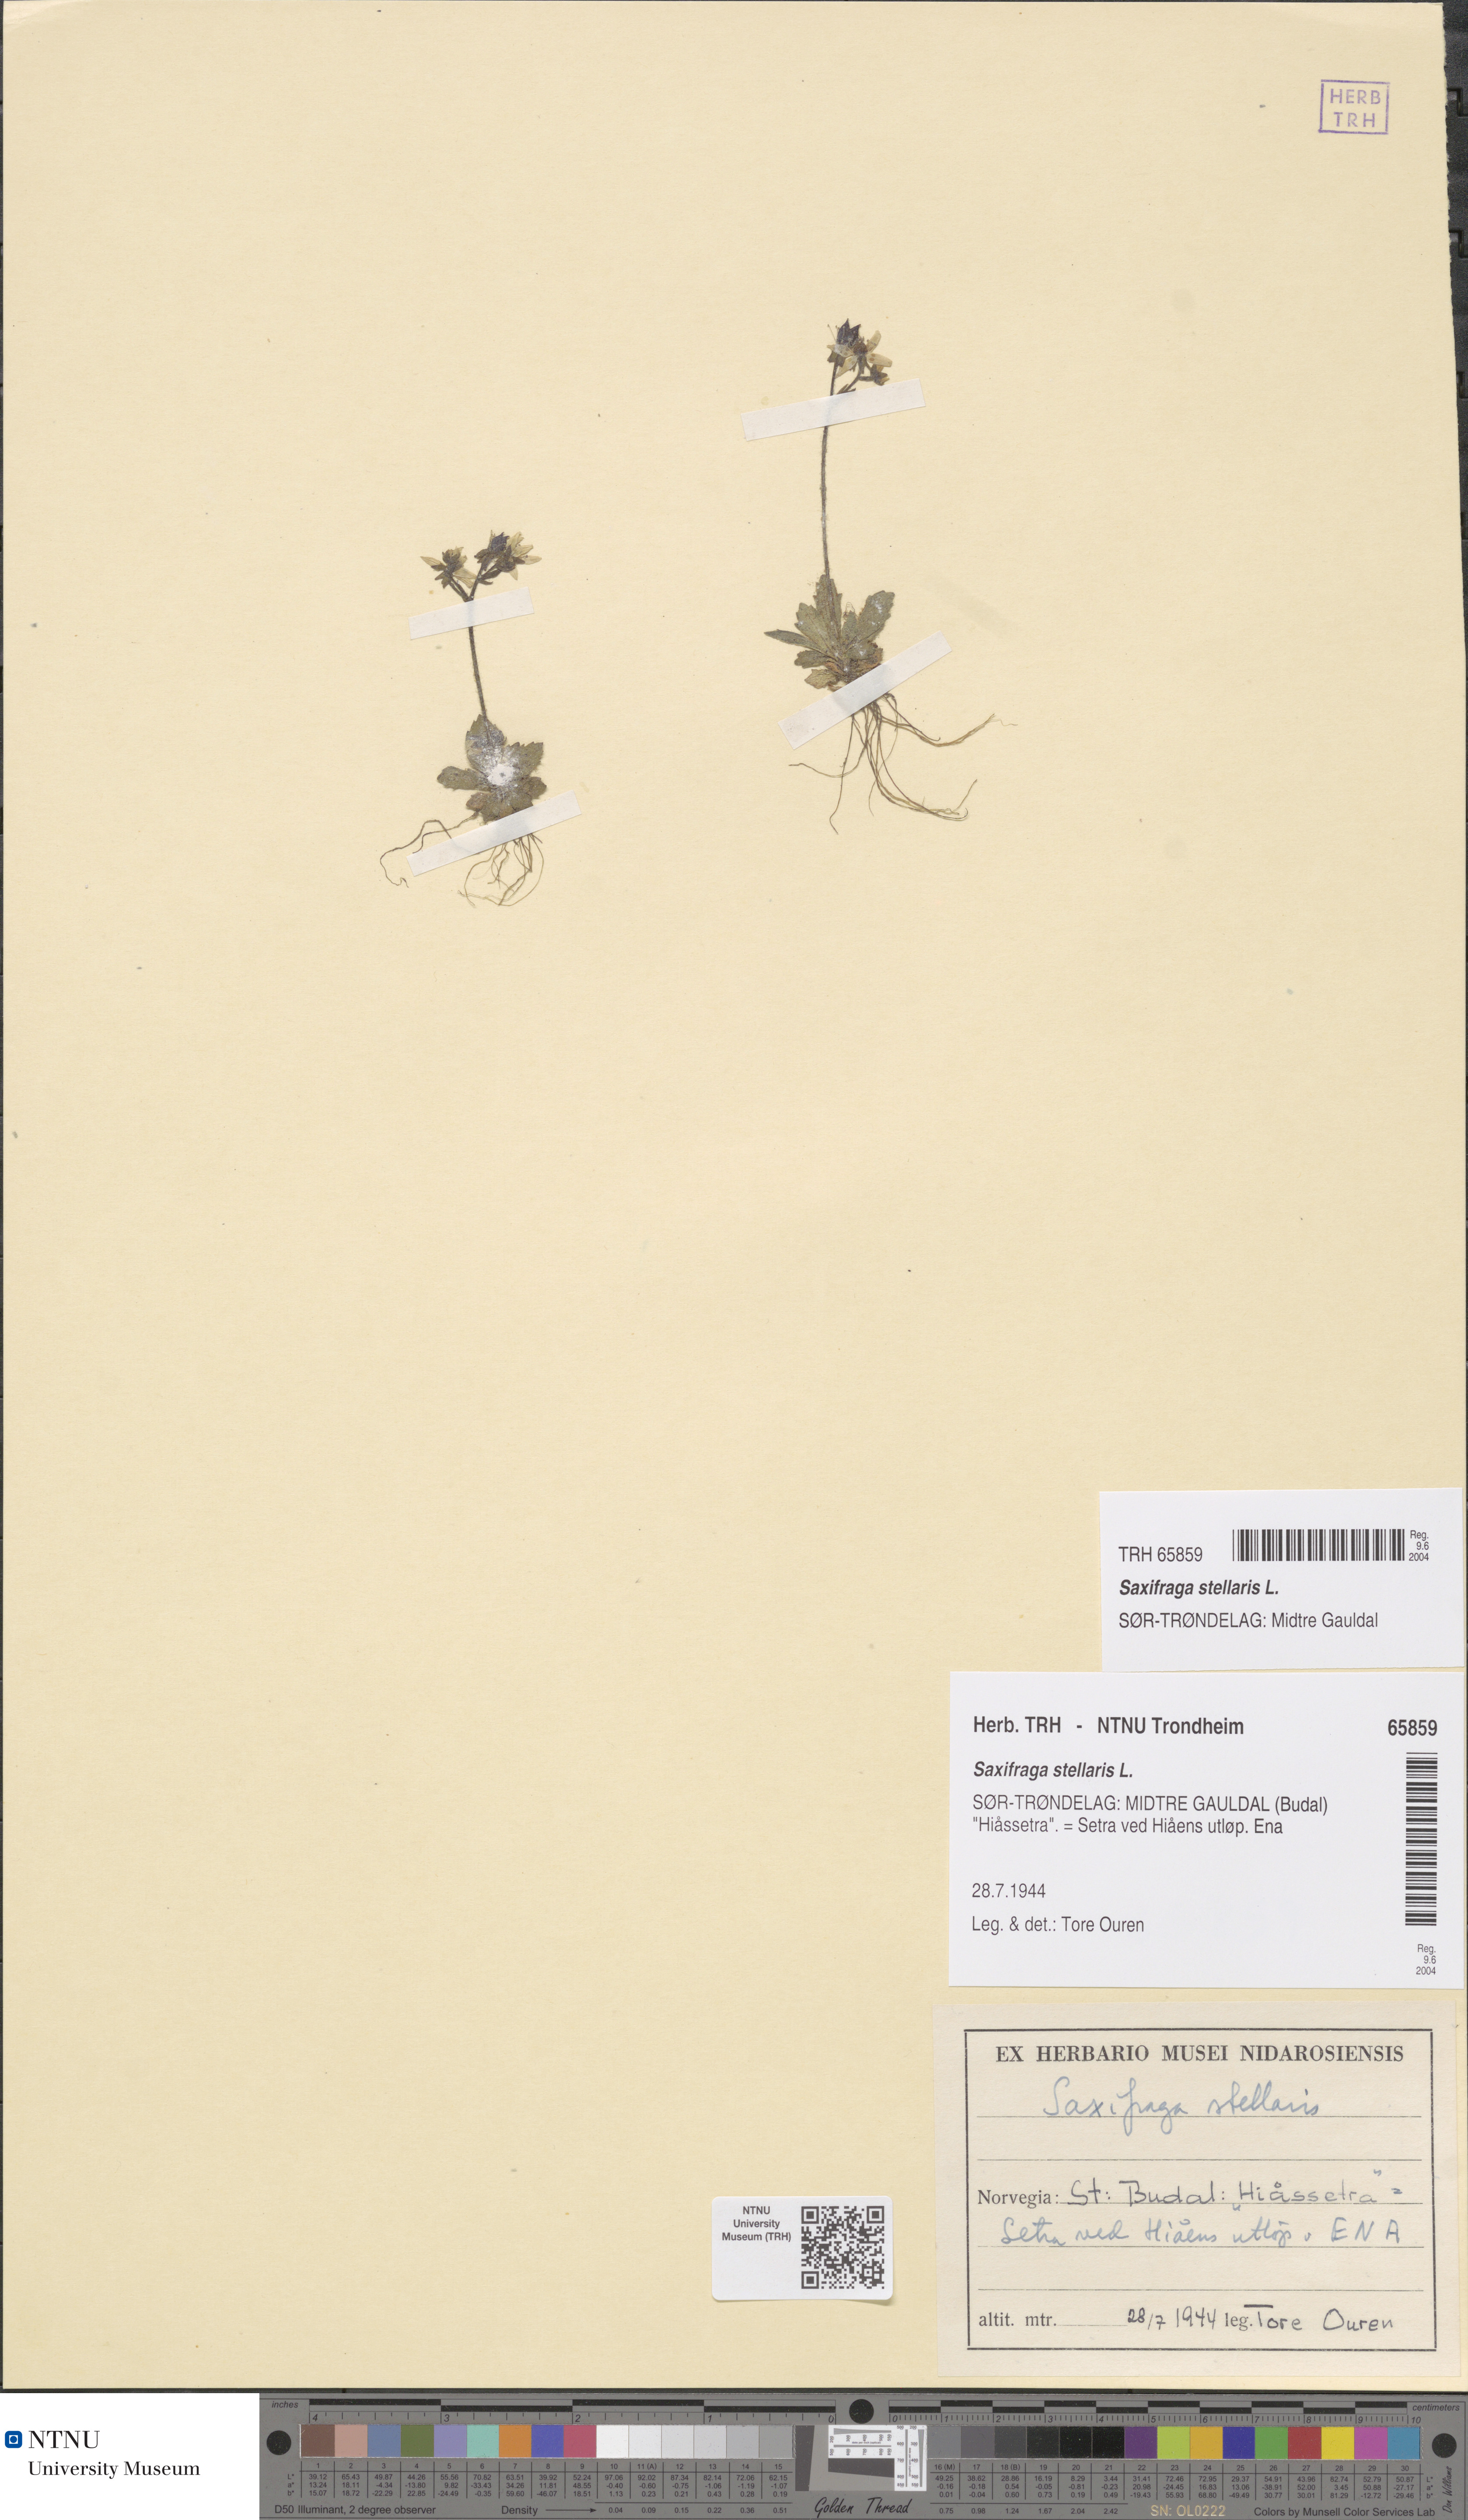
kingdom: Plantae
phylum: Tracheophyta
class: Magnoliopsida
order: Saxifragales
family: Saxifragaceae
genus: Micranthes
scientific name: Micranthes stellaris
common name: Starry saxifrage
